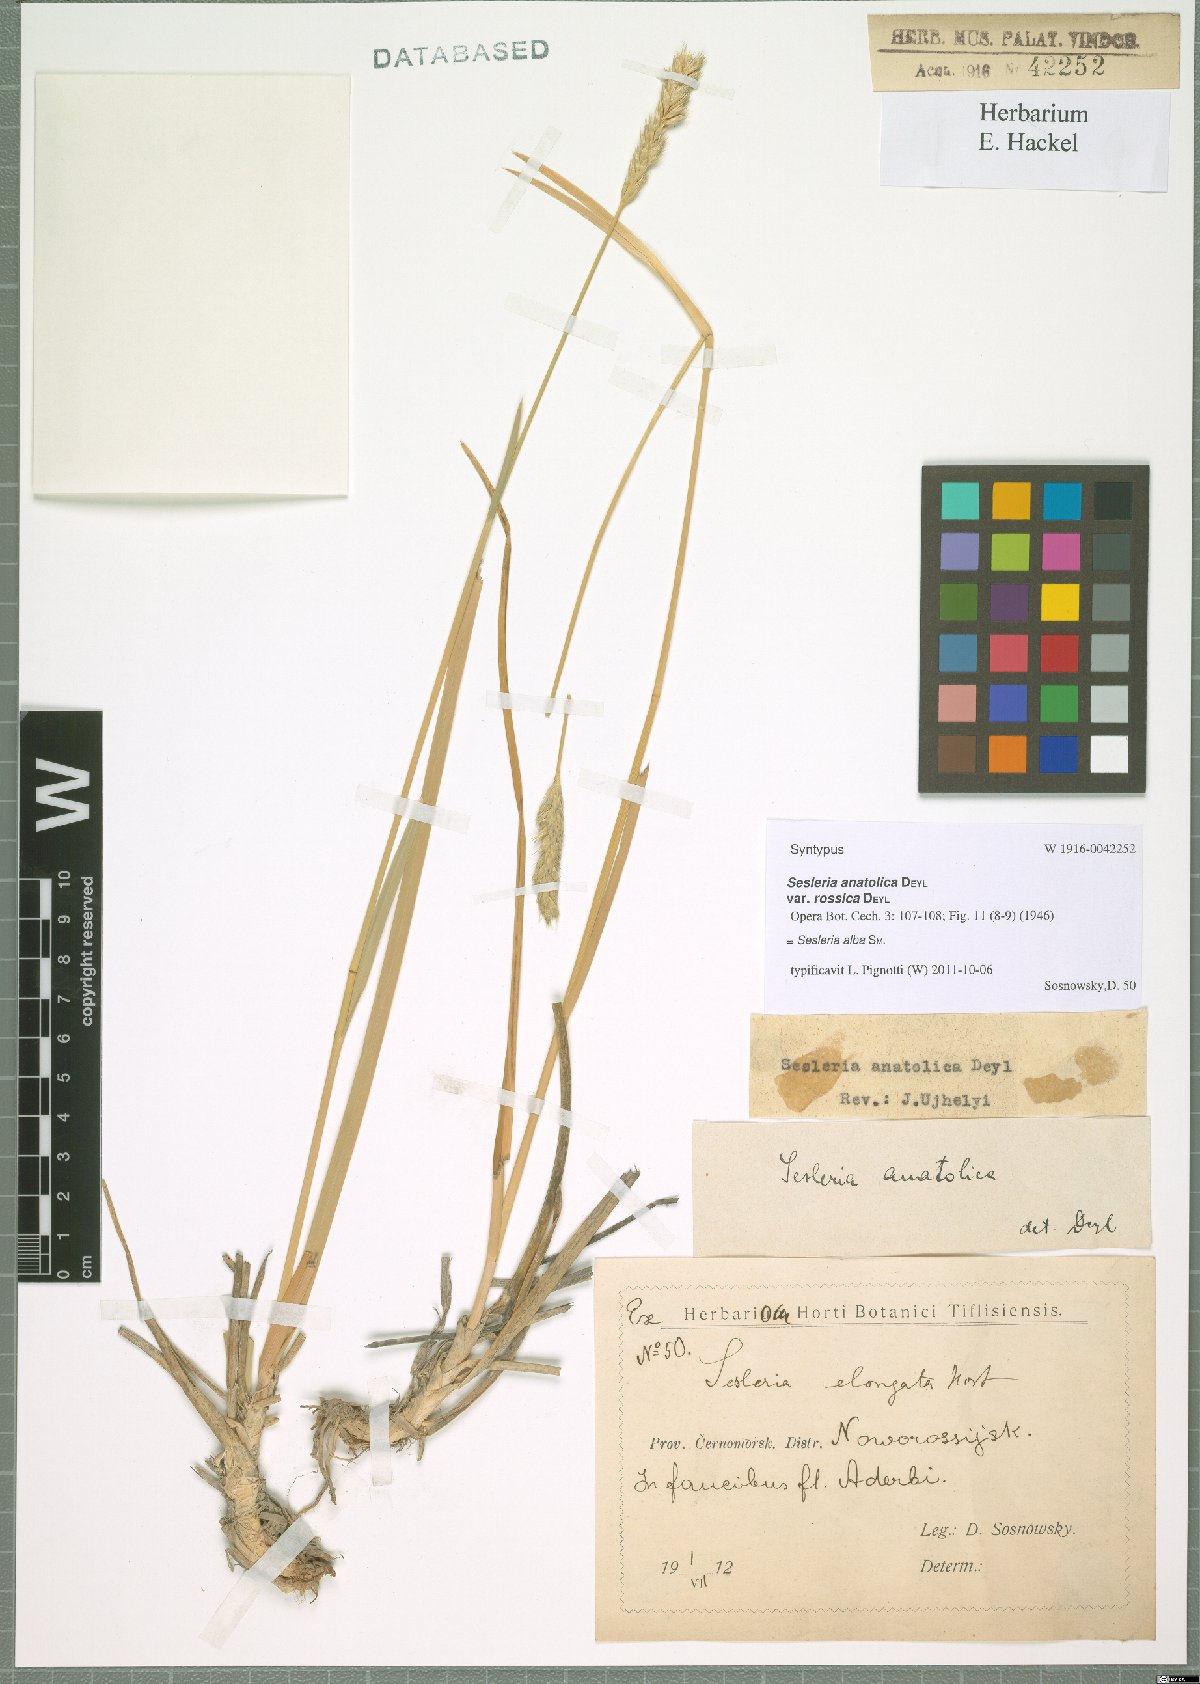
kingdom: Plantae
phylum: Tracheophyta
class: Liliopsida
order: Poales
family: Poaceae
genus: Sesleria
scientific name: Sesleria alba
